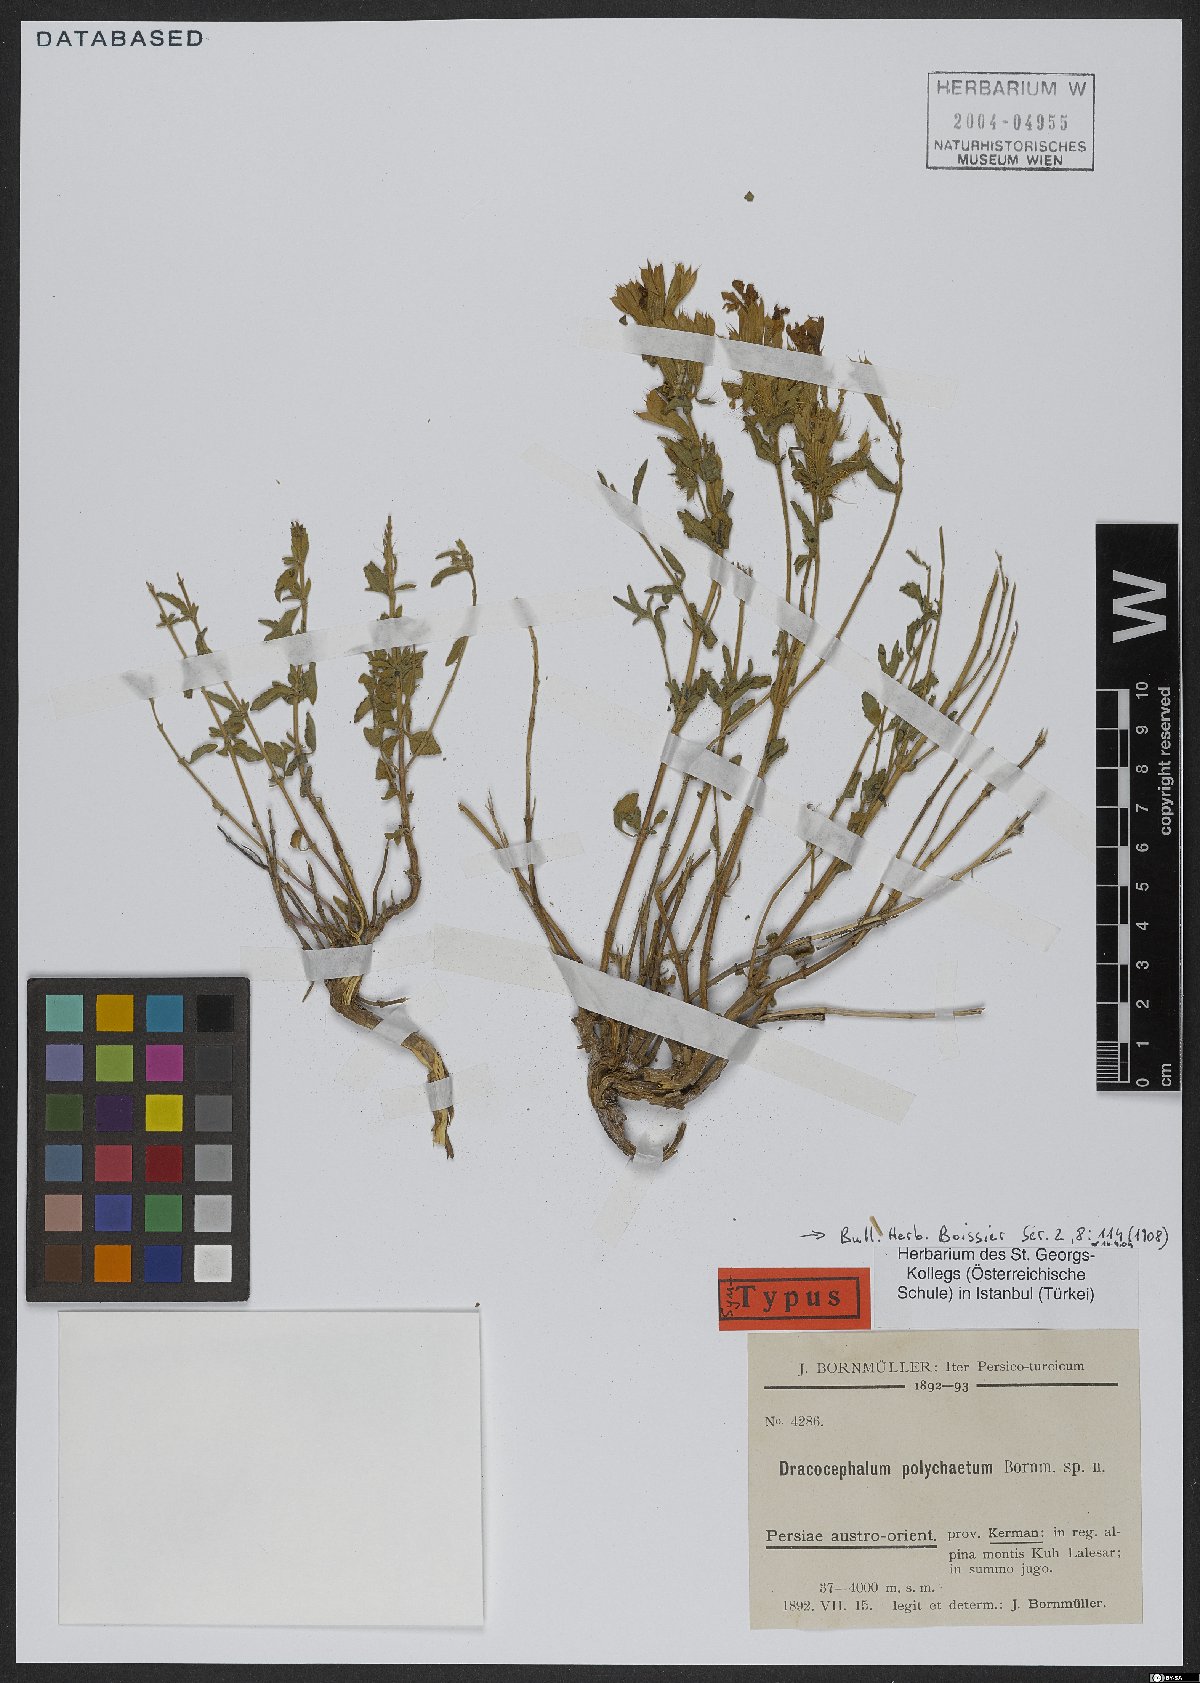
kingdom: Plantae
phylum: Tracheophyta
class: Magnoliopsida
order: Lamiales
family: Lamiaceae
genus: Dracocephalum
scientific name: Dracocephalum polychaetum
